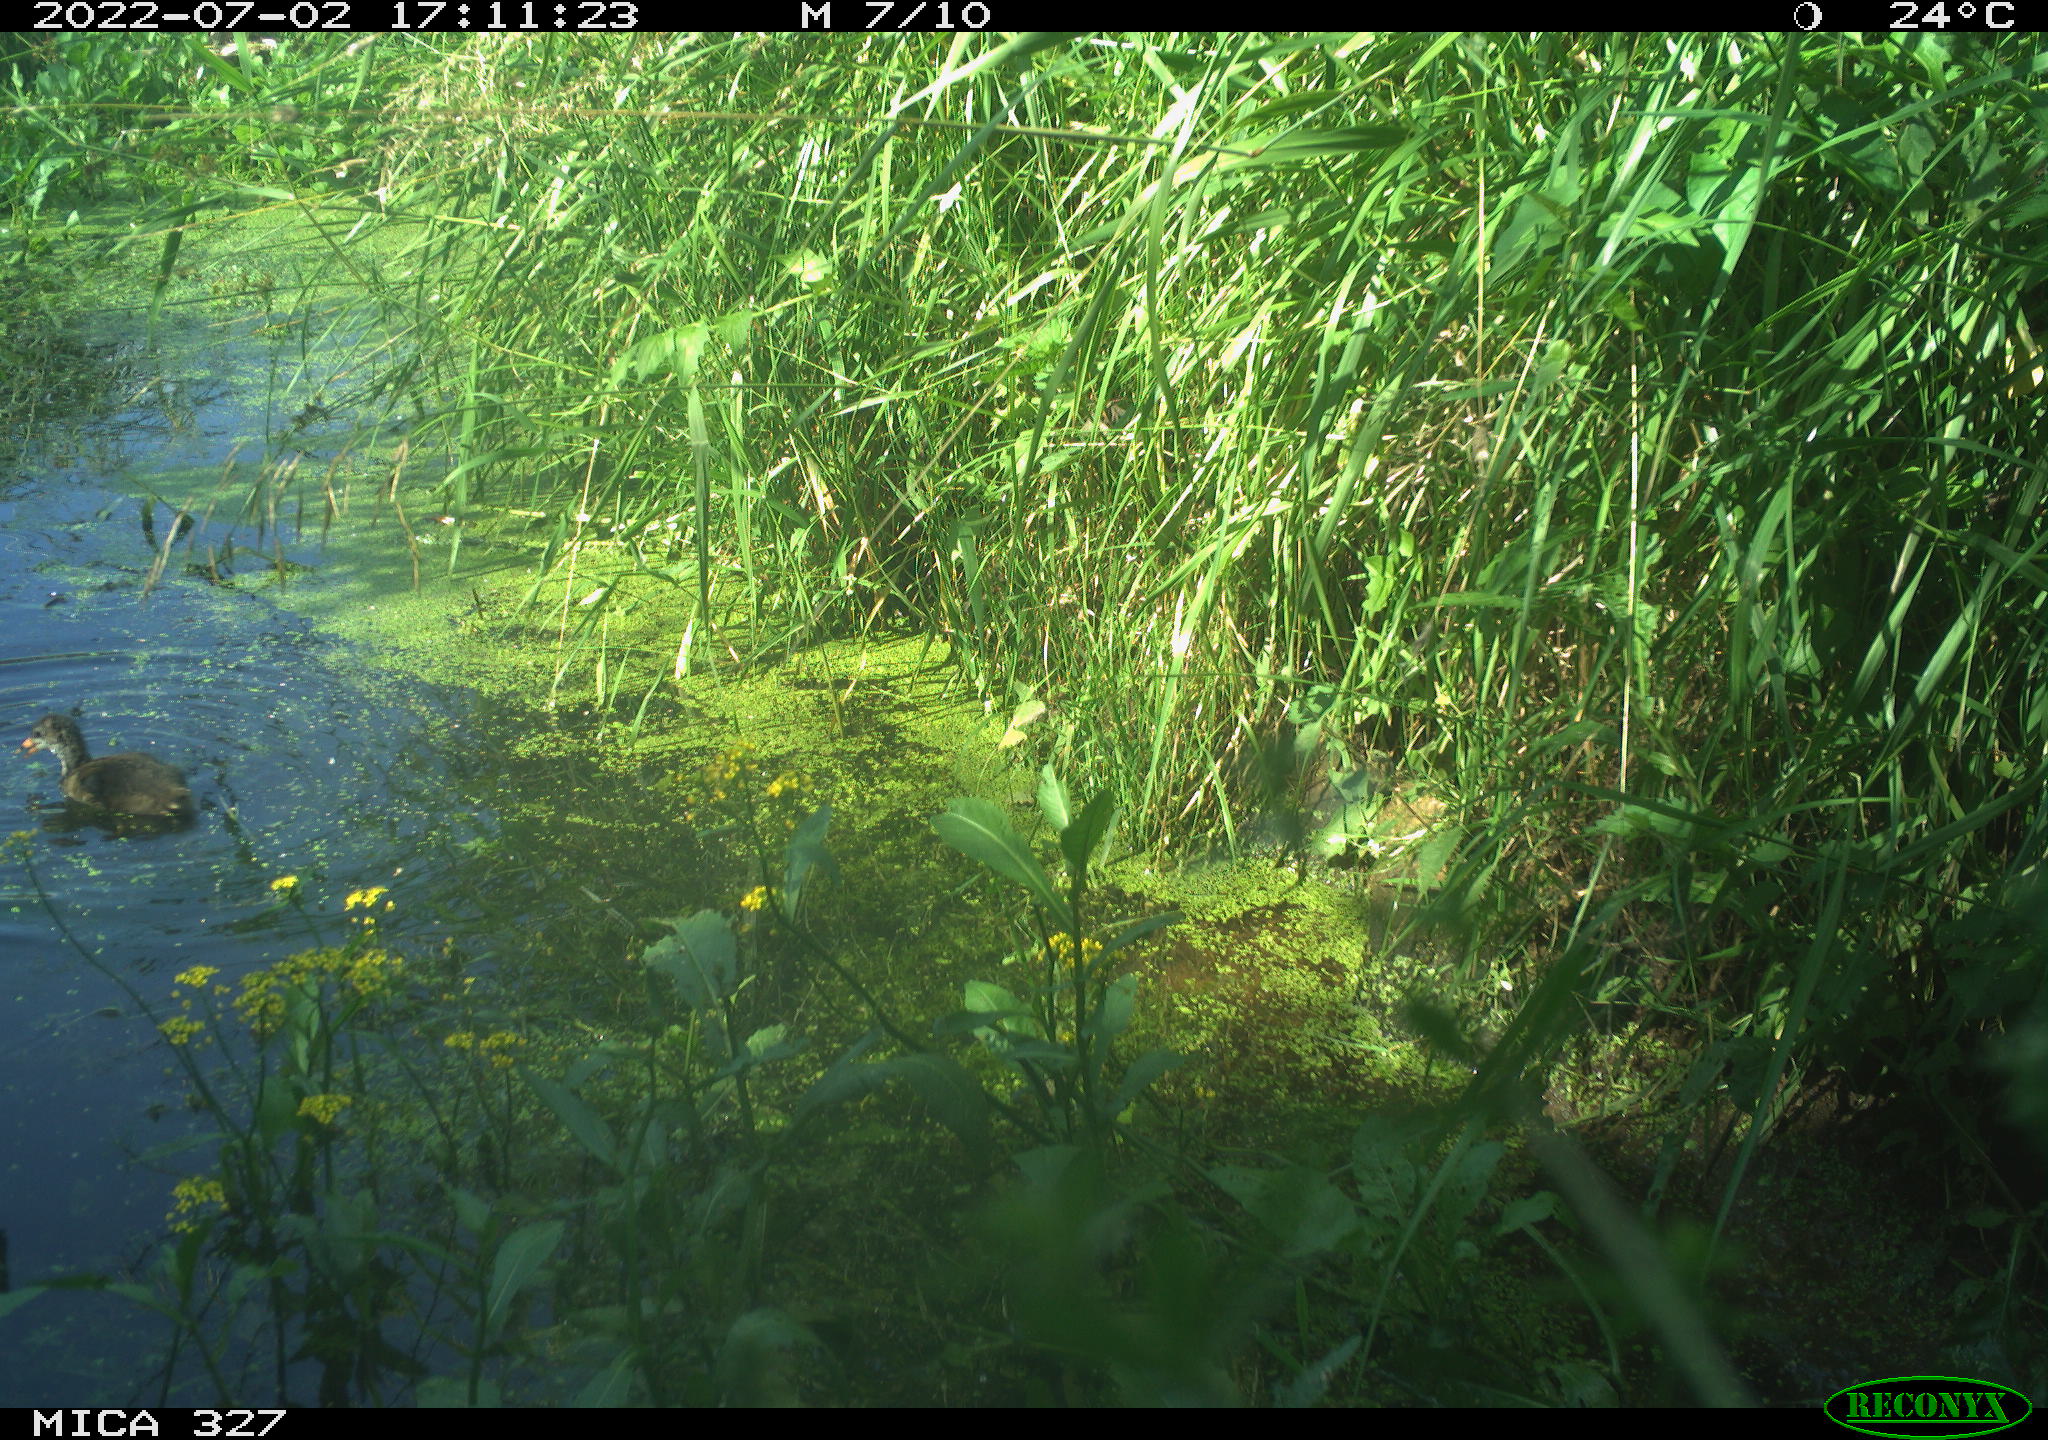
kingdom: Animalia
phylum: Chordata
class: Aves
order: Gruiformes
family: Rallidae
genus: Gallinula
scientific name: Gallinula chloropus
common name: Common moorhen
